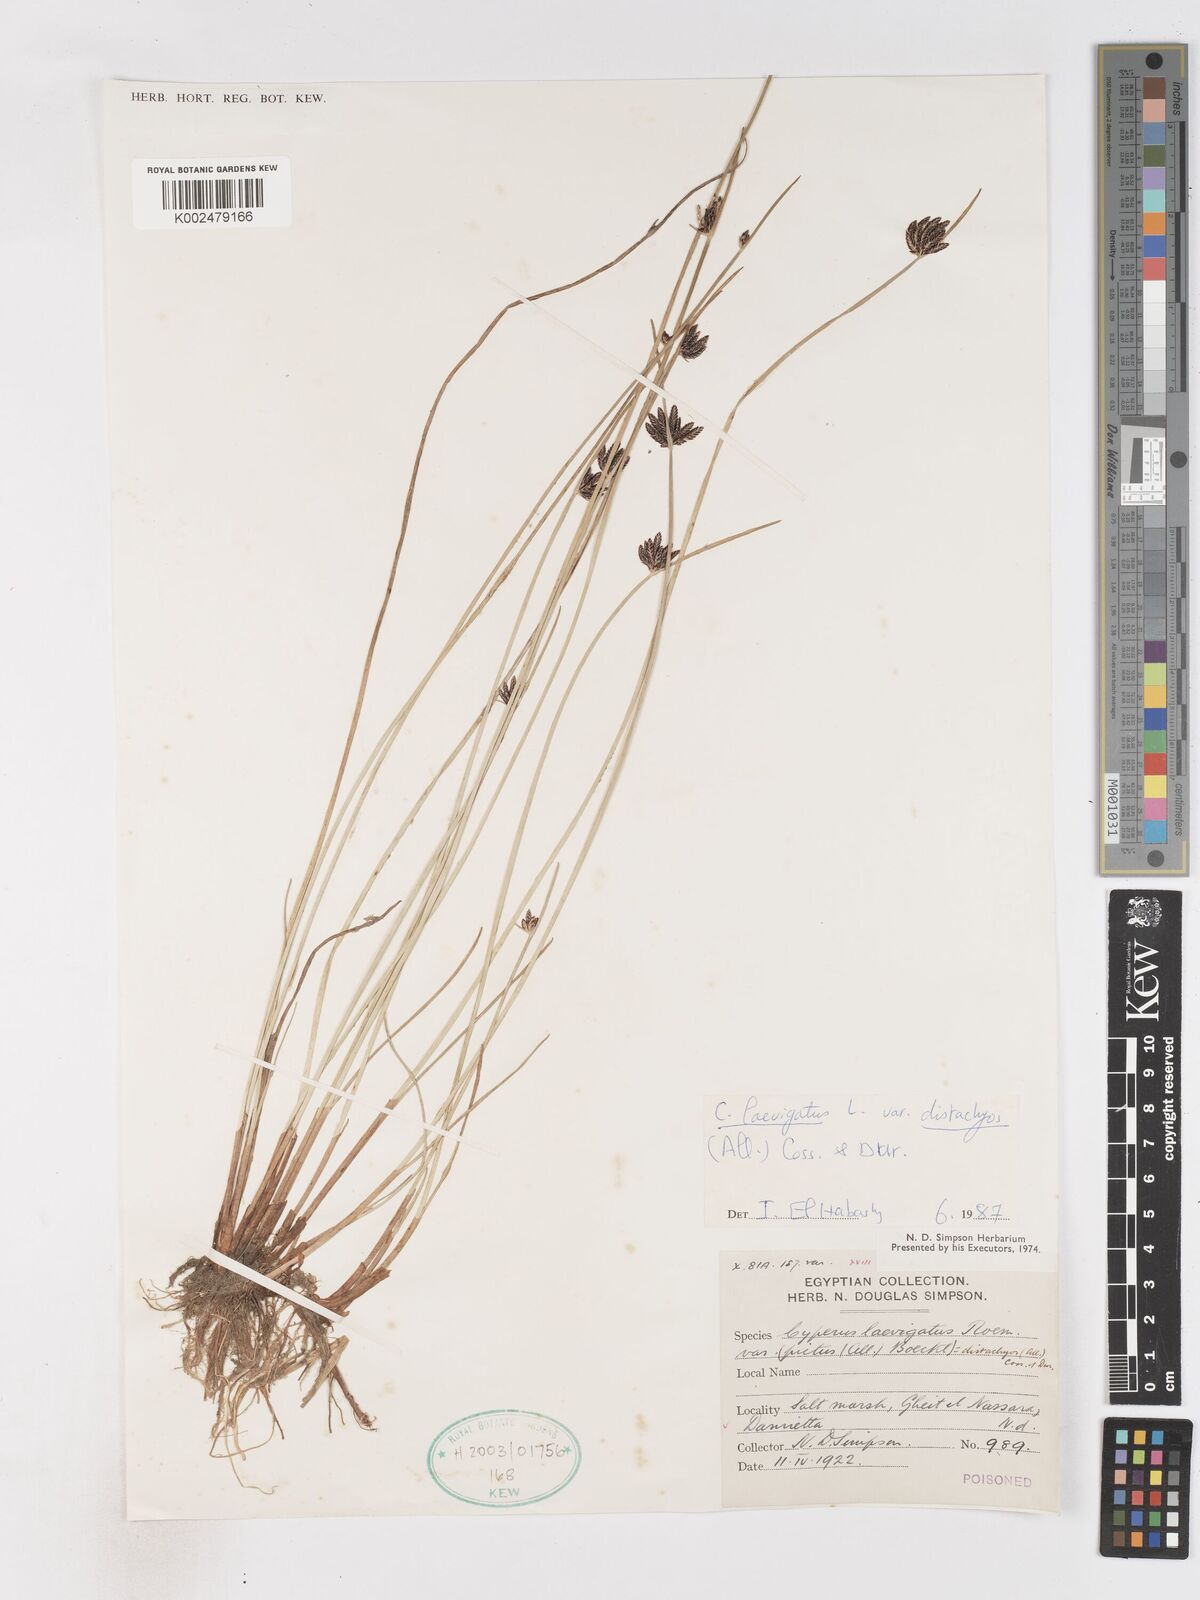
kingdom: Plantae
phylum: Tracheophyta
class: Liliopsida
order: Poales
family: Cyperaceae
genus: Cyperus
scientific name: Cyperus laevigatus
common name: Smooth flat sedge
